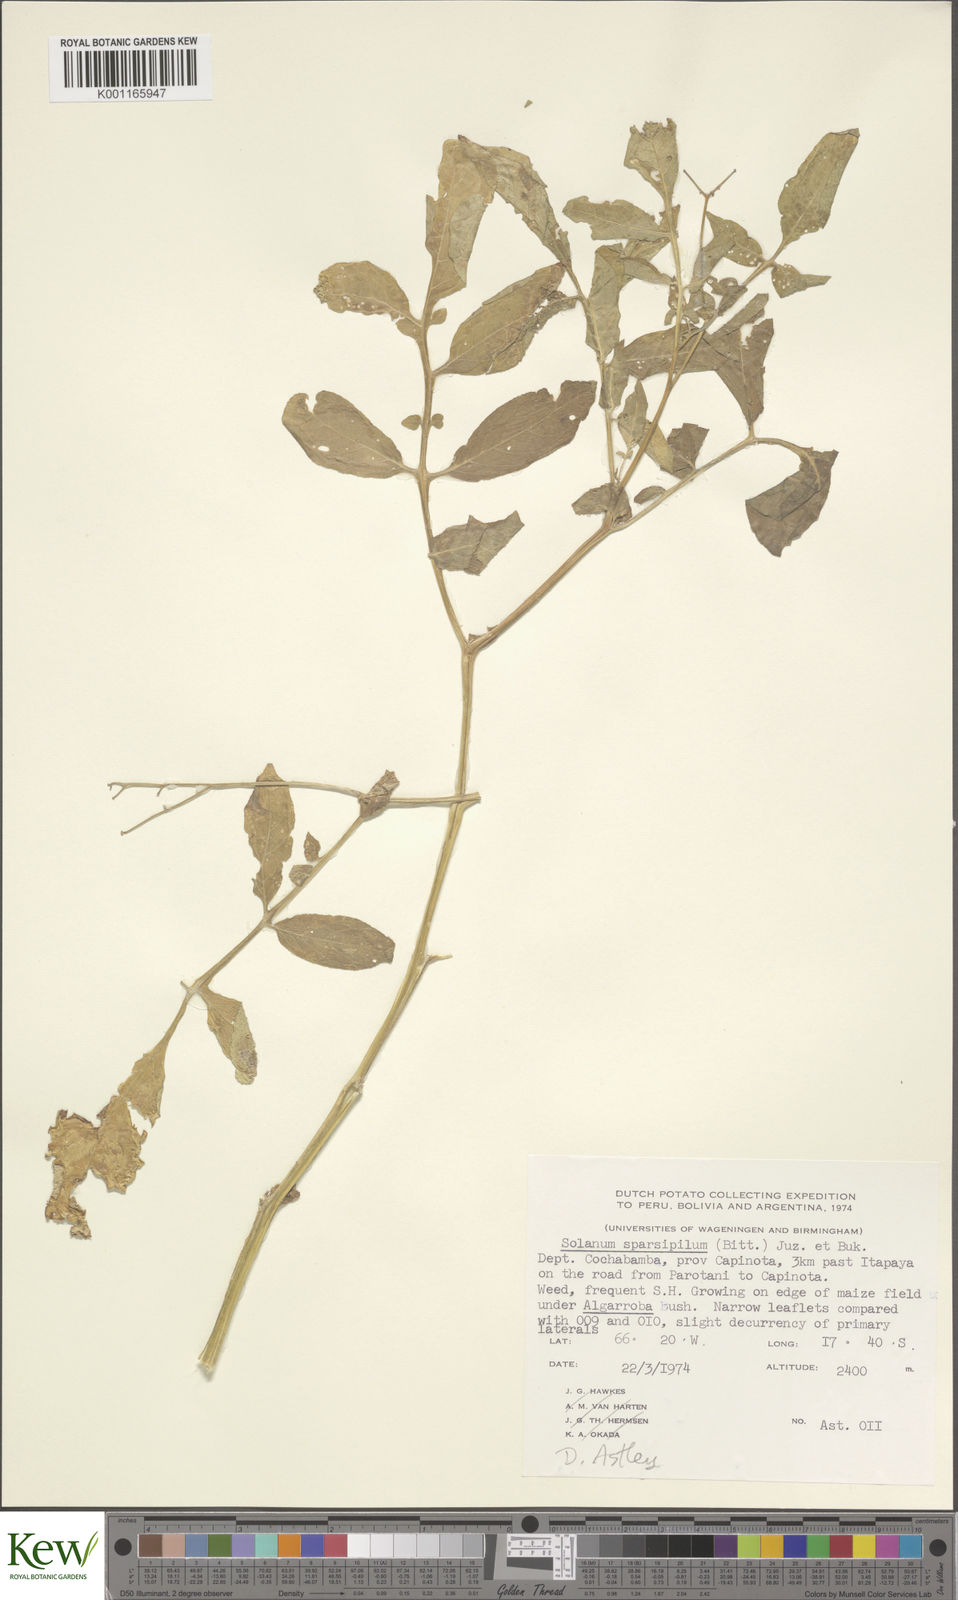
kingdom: Plantae
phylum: Tracheophyta
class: Magnoliopsida
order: Solanales
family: Solanaceae
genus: Solanum
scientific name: Solanum brevicaule
